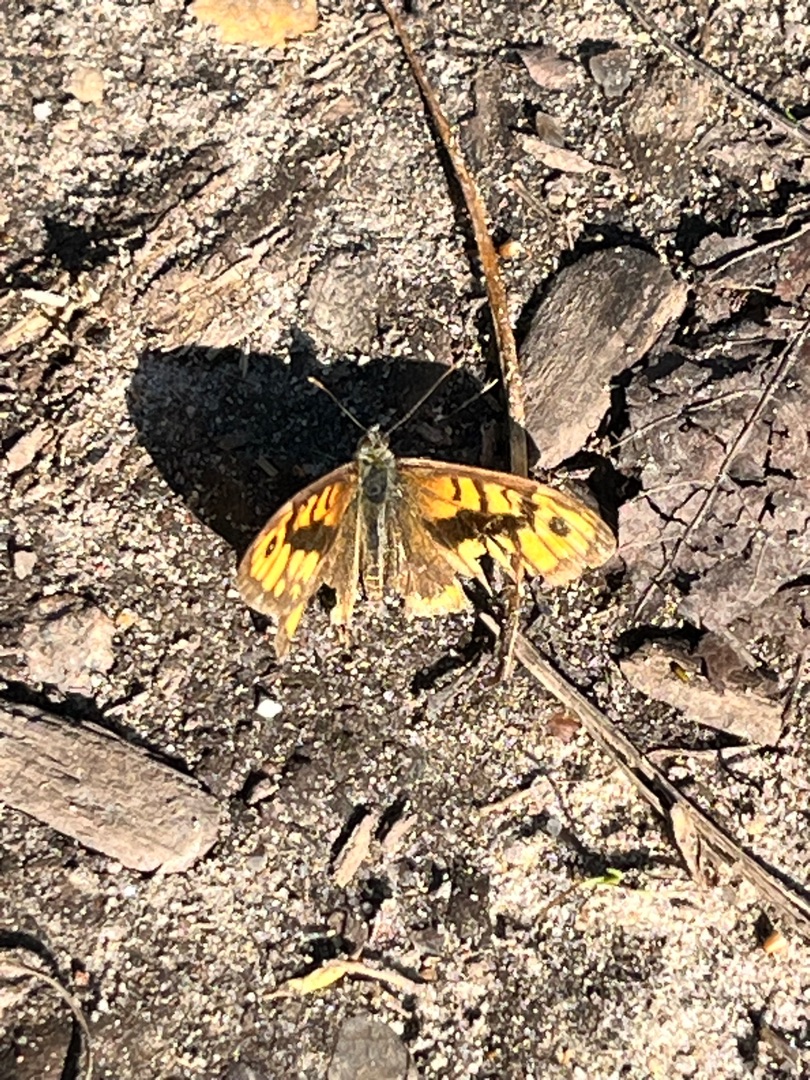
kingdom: Animalia
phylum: Arthropoda
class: Insecta
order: Lepidoptera
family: Nymphalidae
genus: Pararge
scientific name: Pararge Lasiommata megera
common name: Vejrandøje
